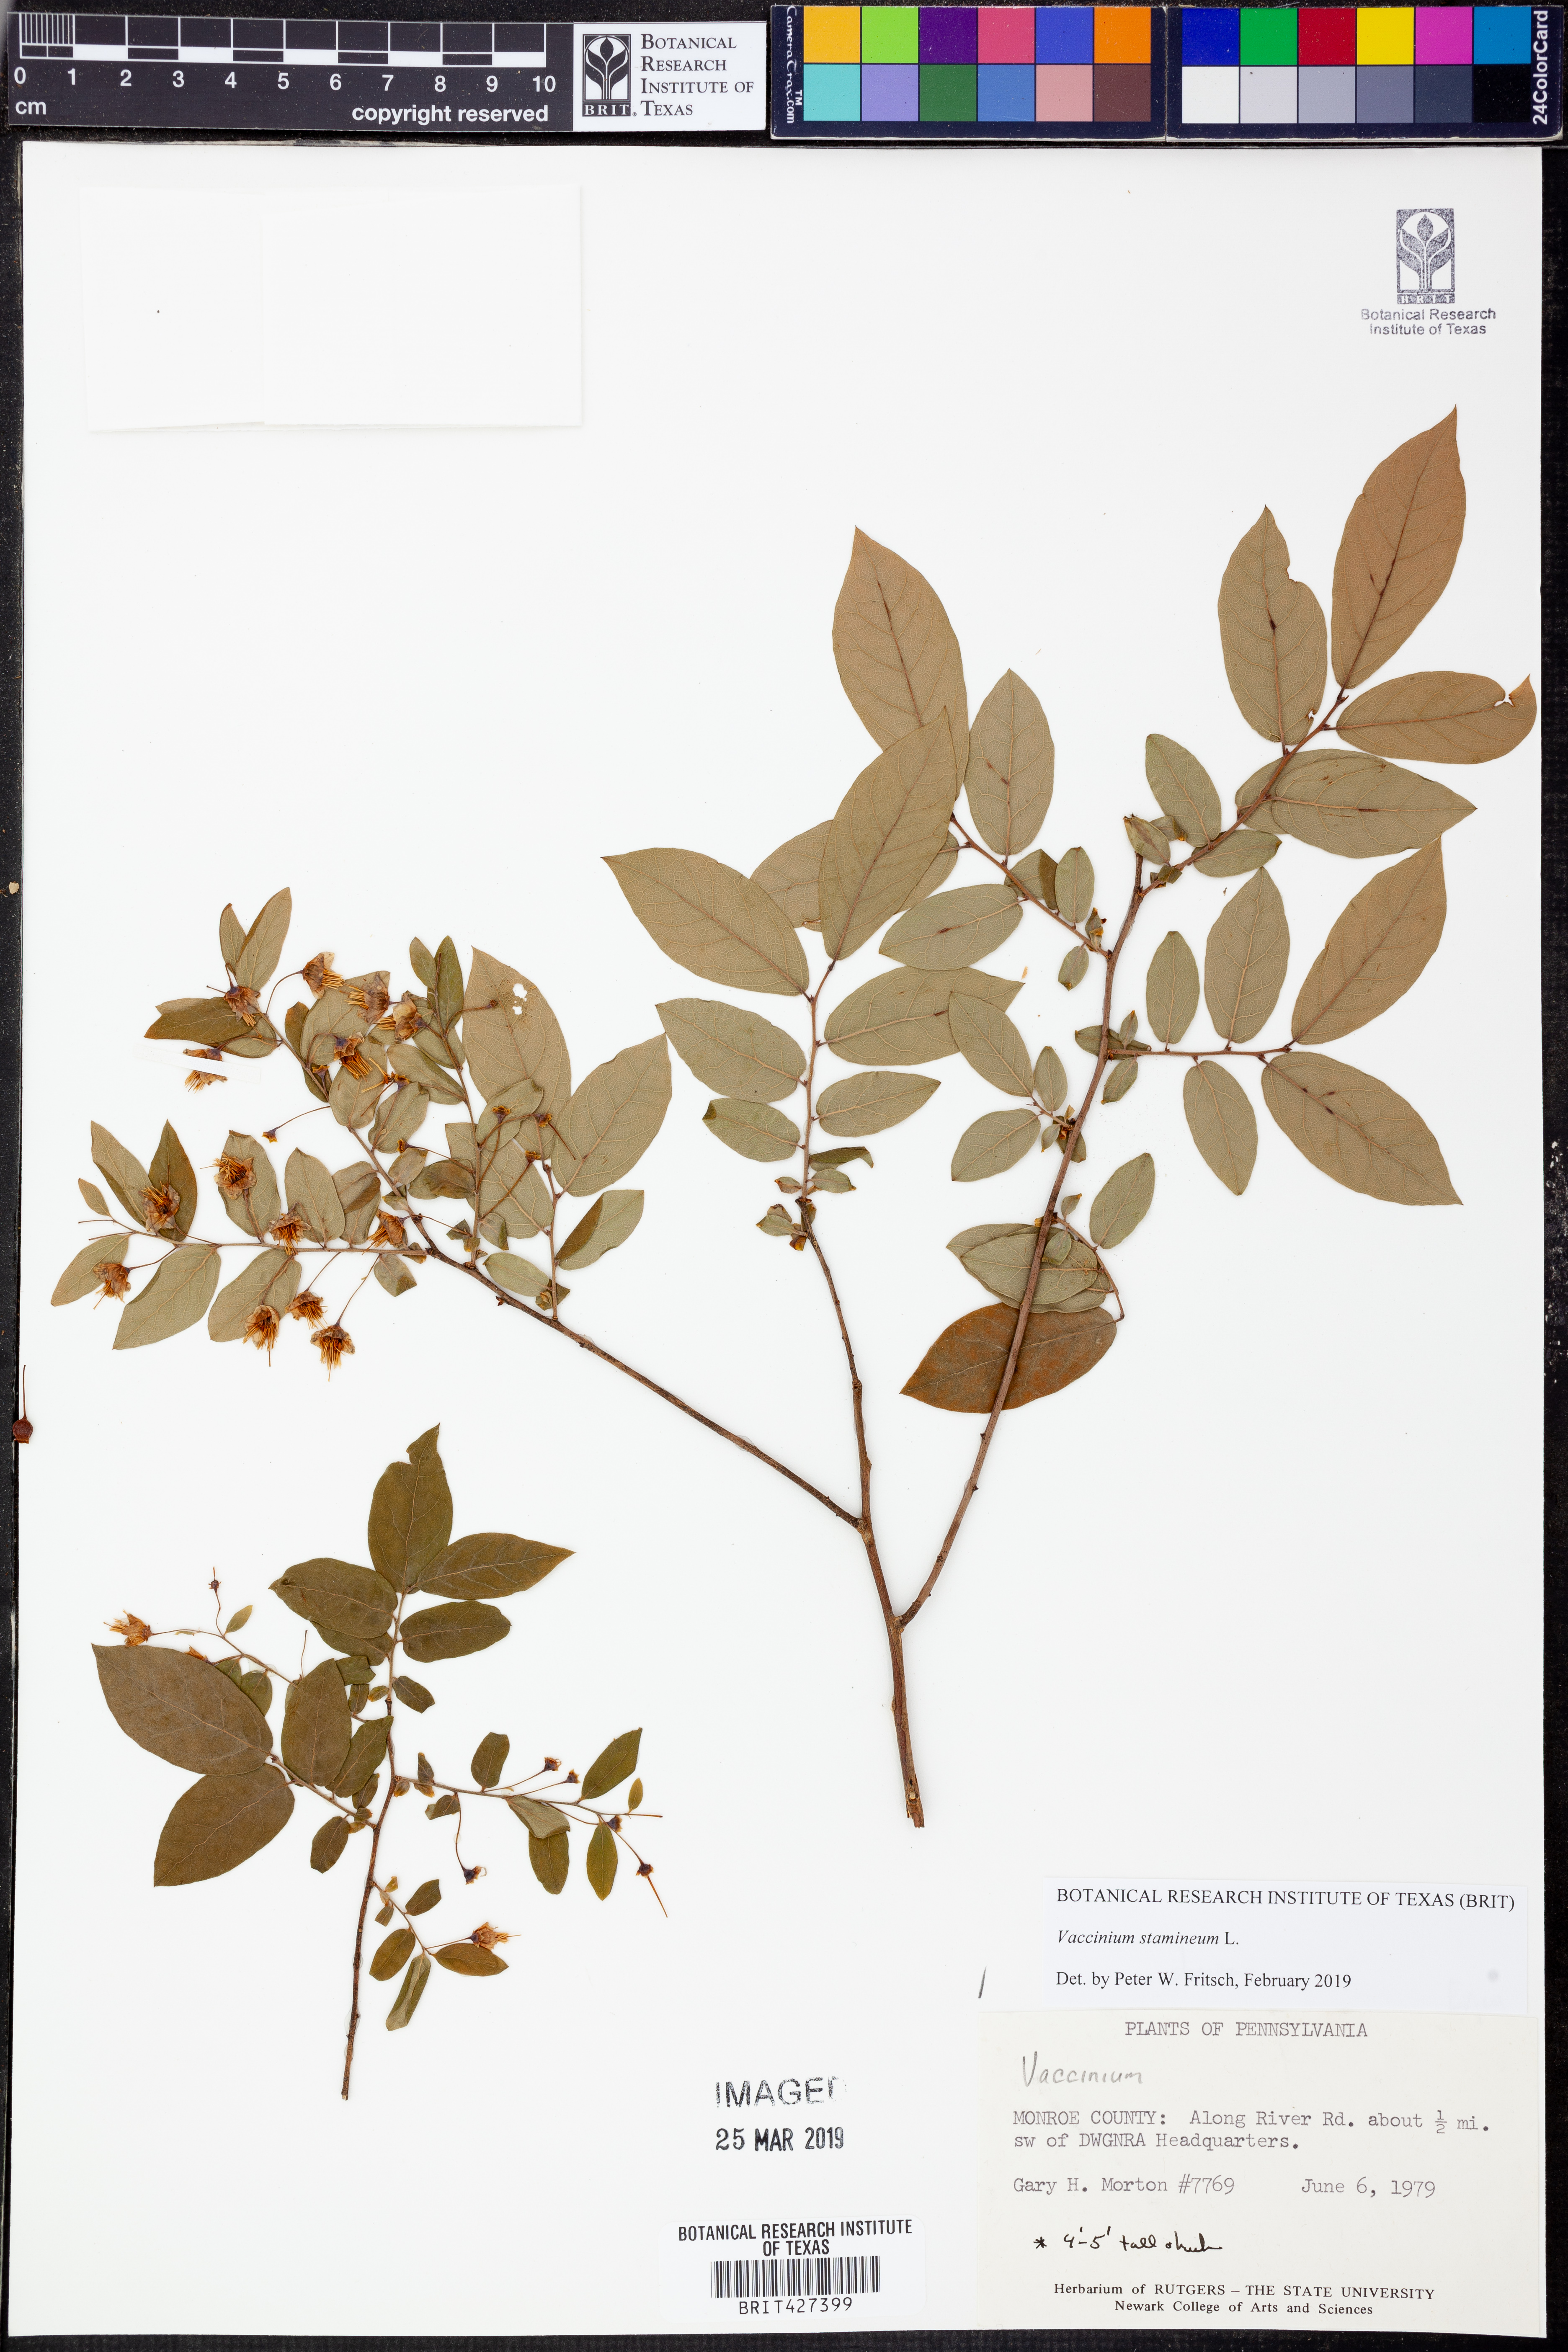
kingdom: Plantae
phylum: Tracheophyta
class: Magnoliopsida
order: Ericales
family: Ericaceae
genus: Vaccinium
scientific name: Vaccinium stamineum
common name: Deerberry
